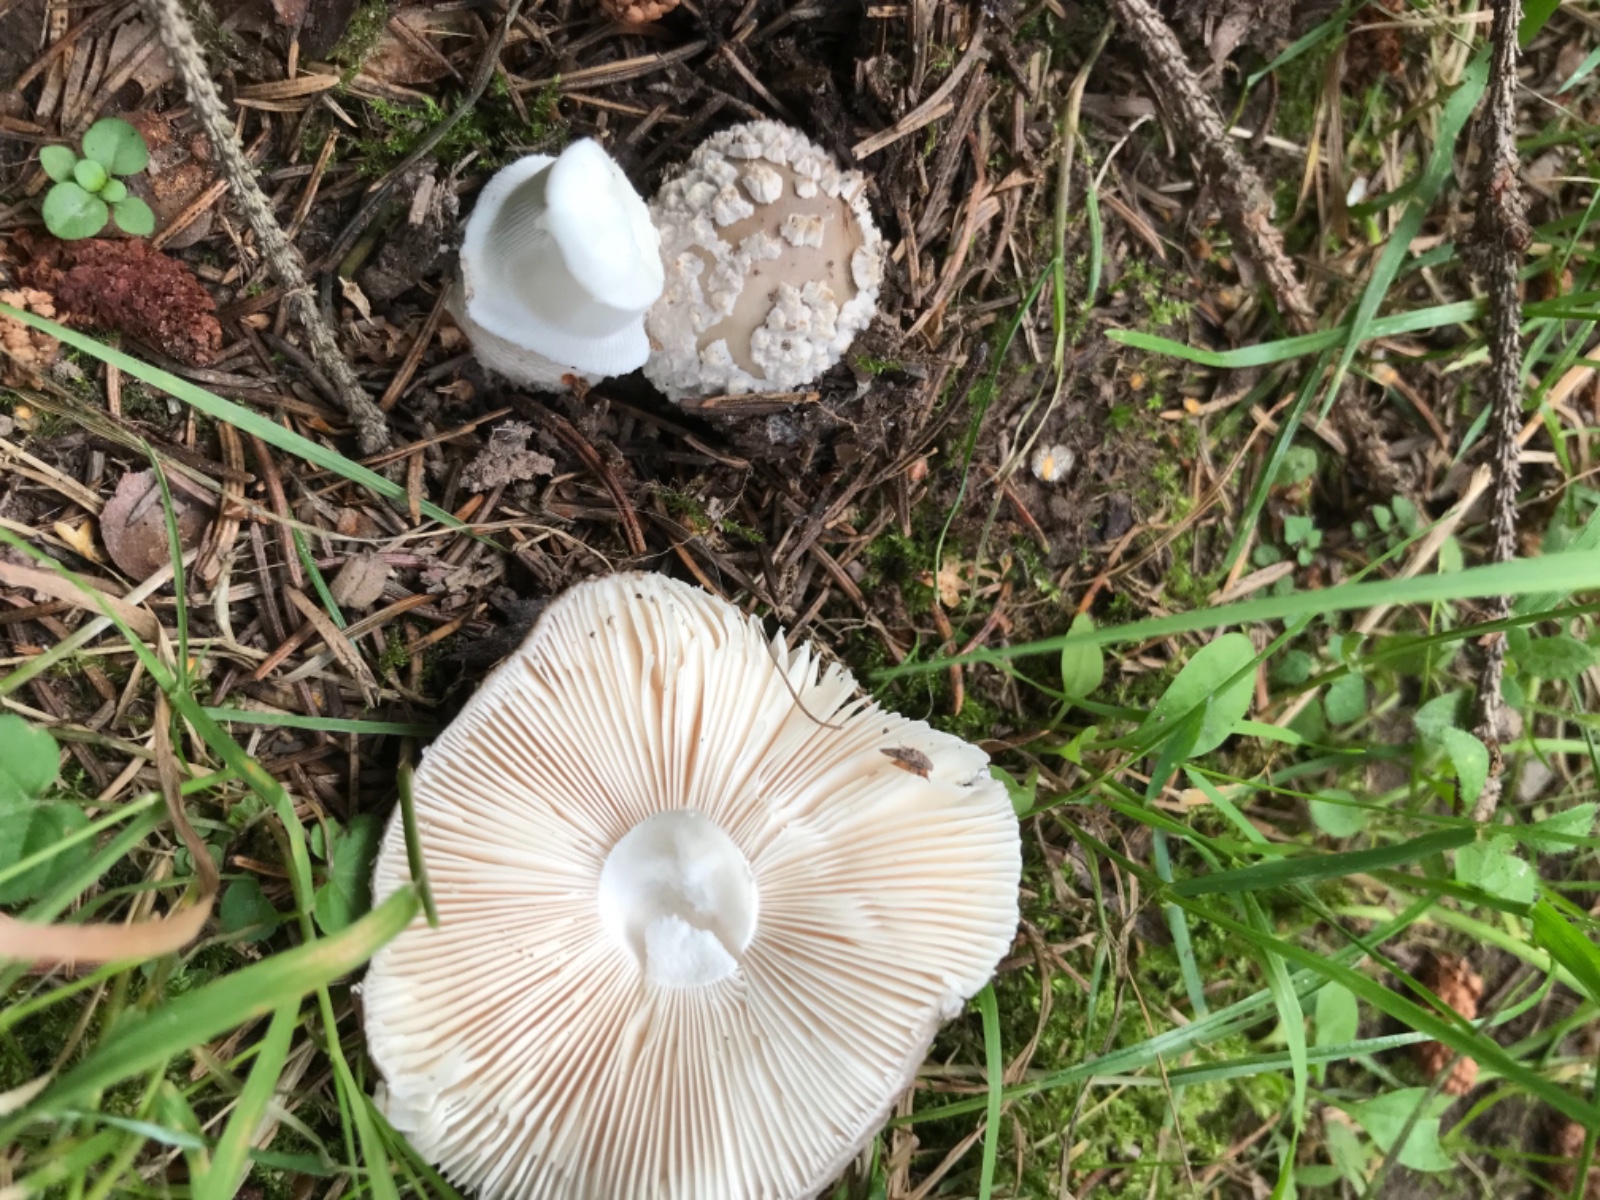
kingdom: Fungi
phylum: Basidiomycota
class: Agaricomycetes
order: Agaricales
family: Amanitaceae
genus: Amanita
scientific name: Amanita
